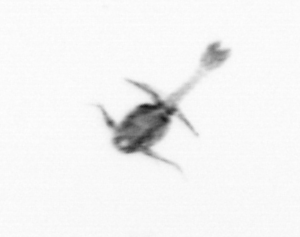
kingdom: Animalia
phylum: Arthropoda
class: Copepoda
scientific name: Copepoda
